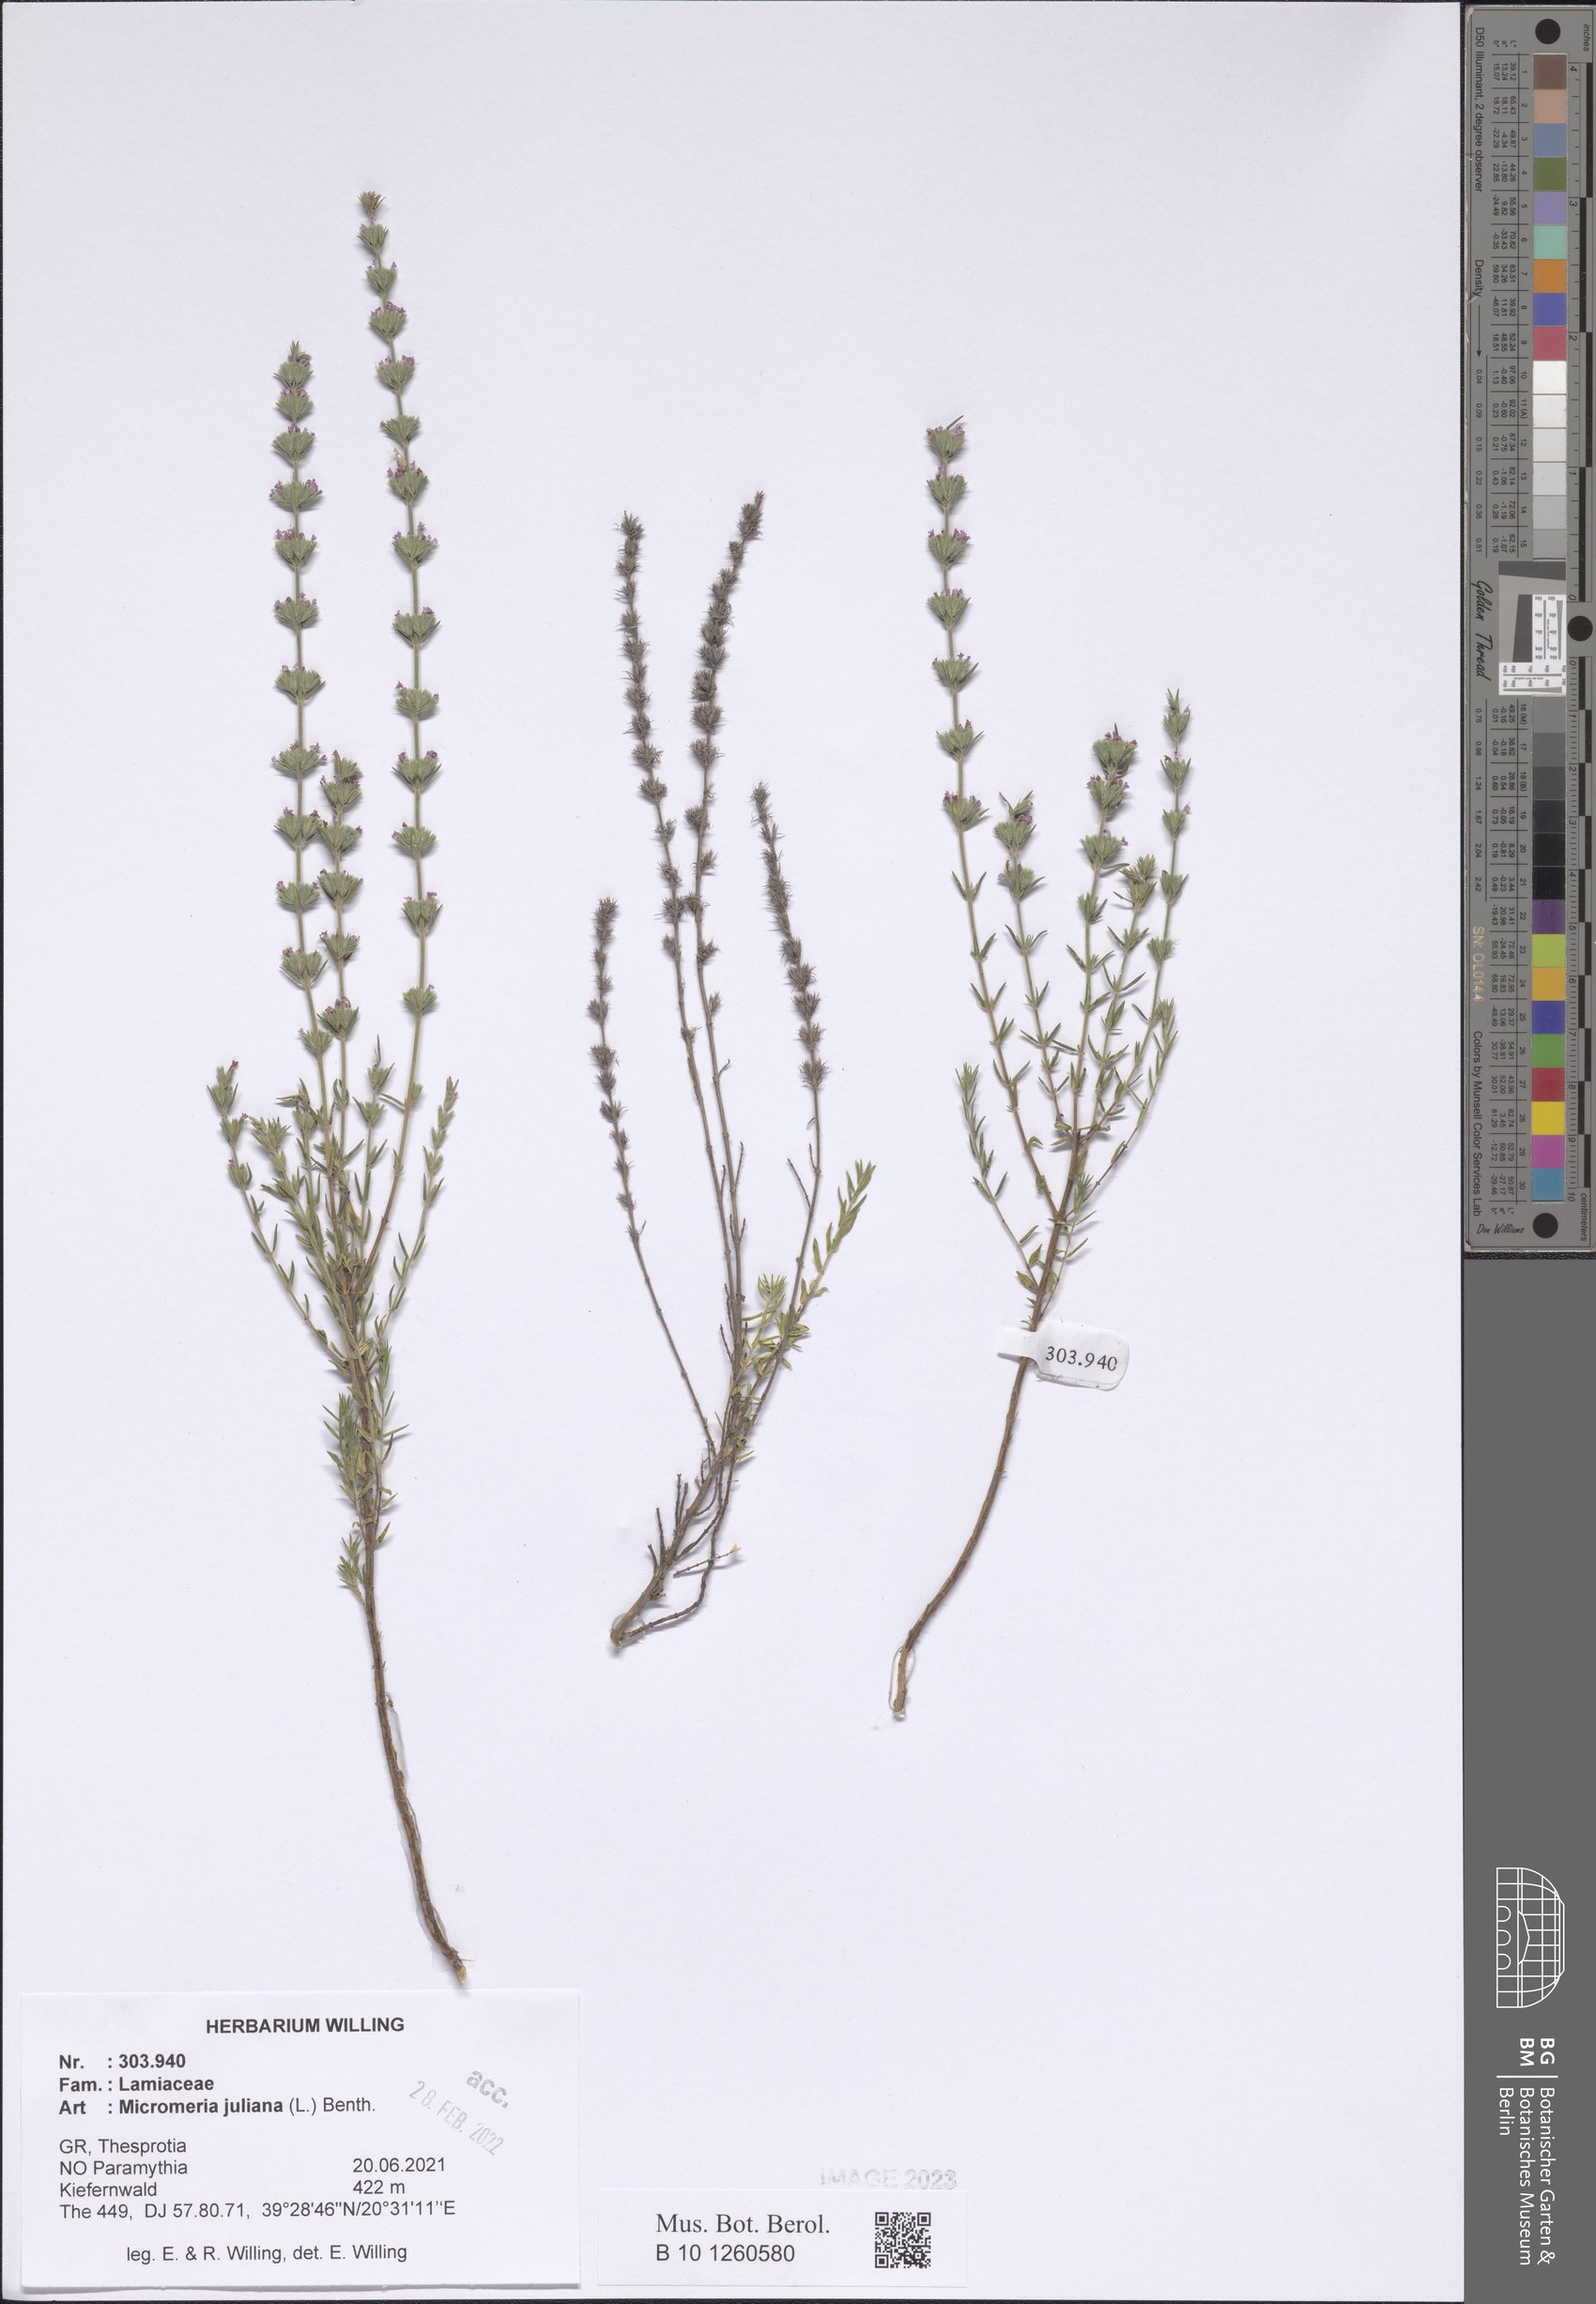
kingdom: Plantae
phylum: Tracheophyta
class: Magnoliopsida
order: Lamiales
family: Lamiaceae
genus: Micromeria
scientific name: Micromeria juliana
